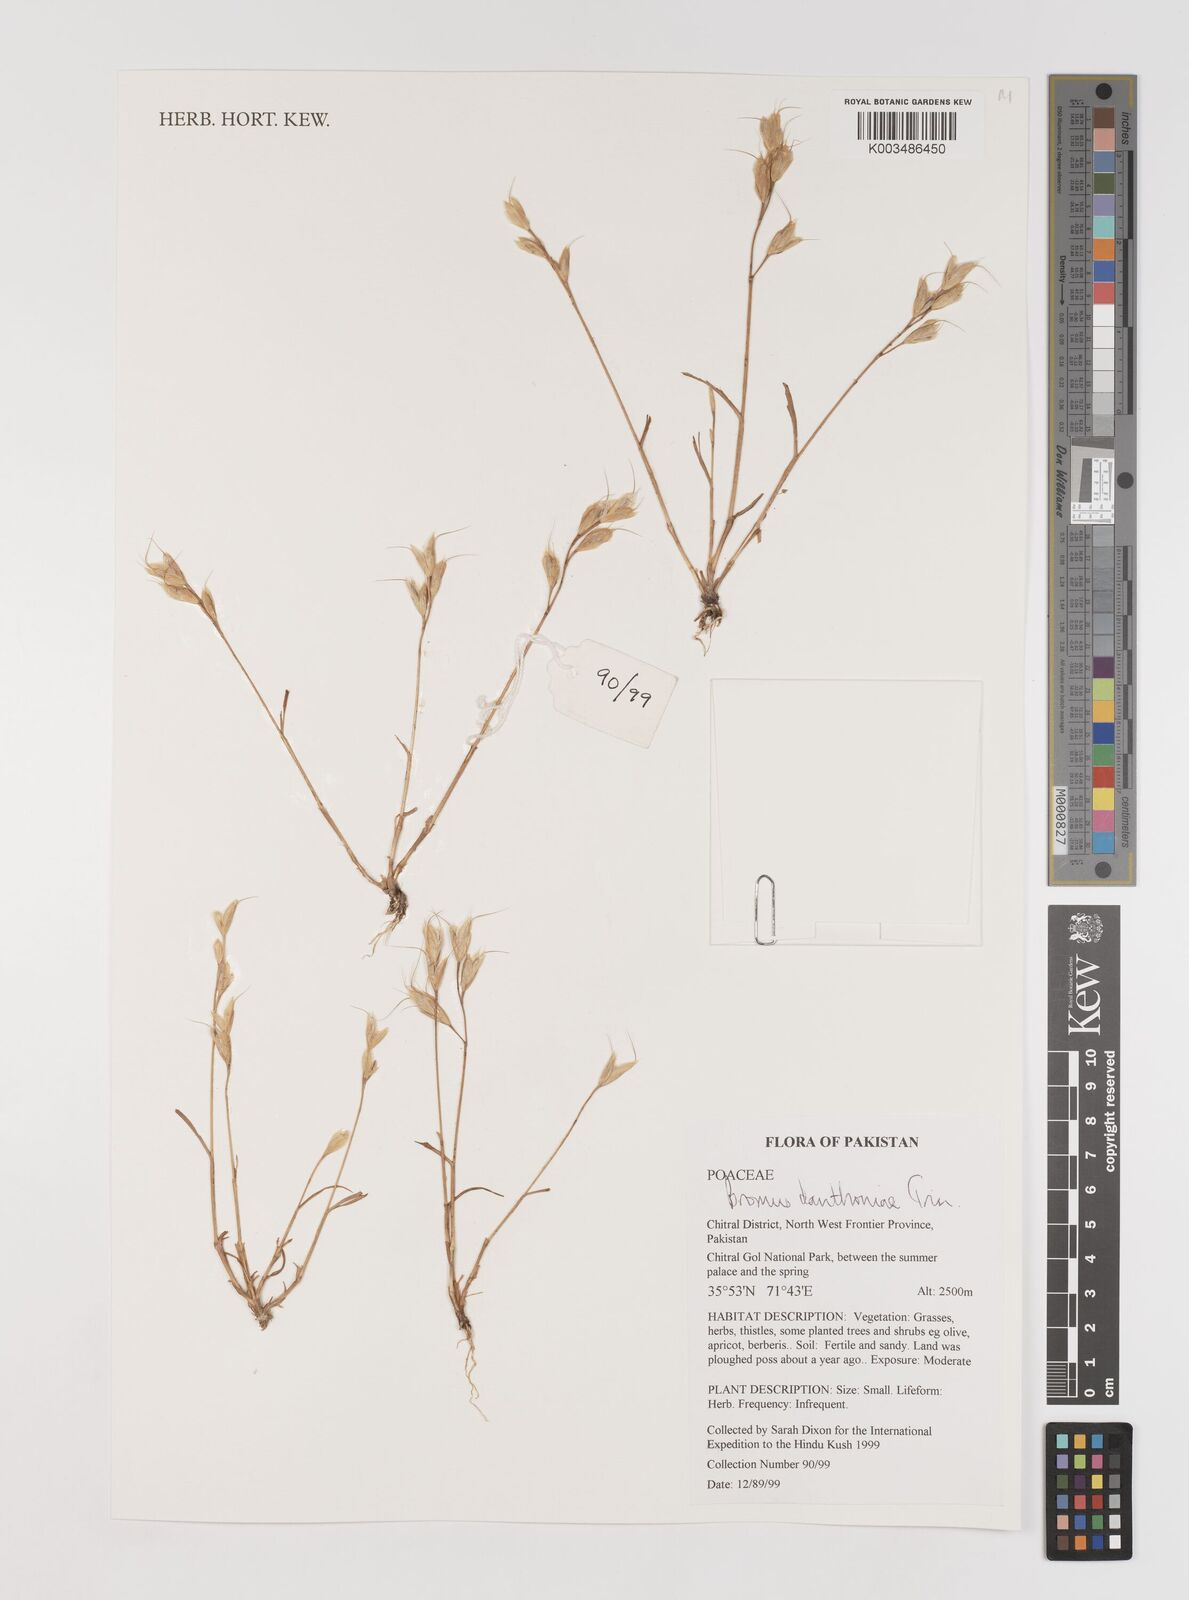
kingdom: Plantae
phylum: Tracheophyta
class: Liliopsida
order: Poales
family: Poaceae
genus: Bromus
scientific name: Bromus danthoniae
